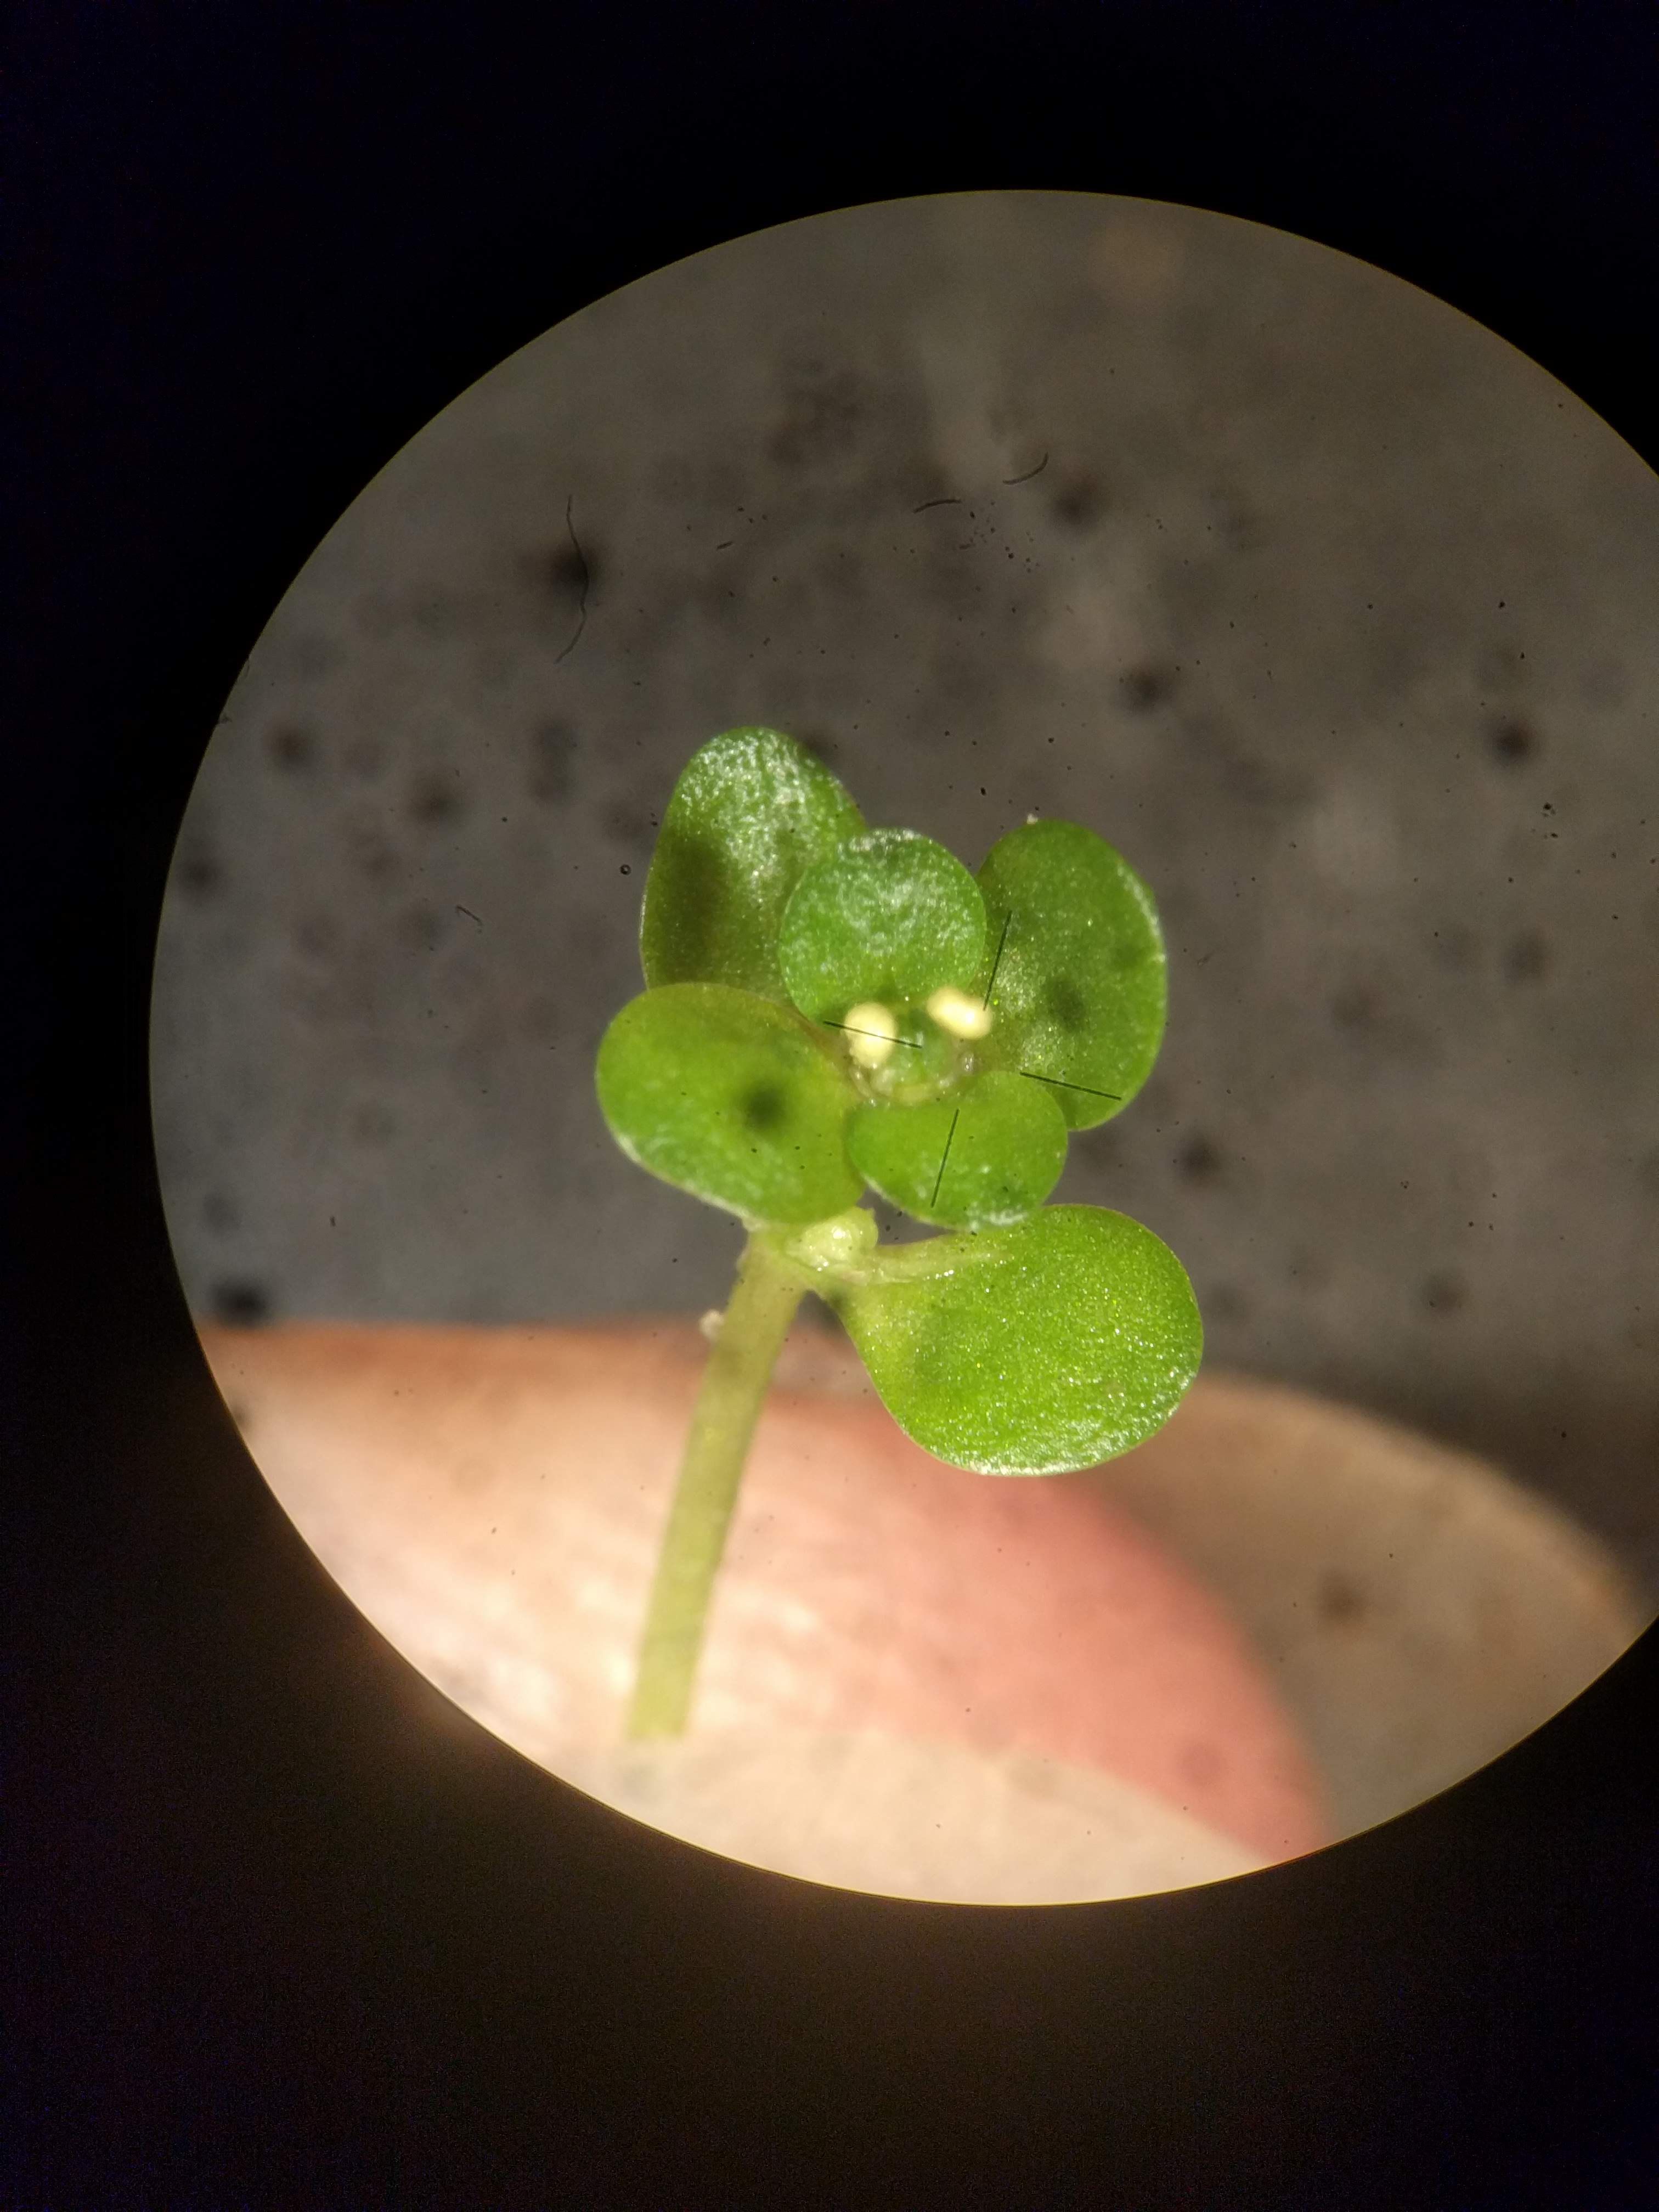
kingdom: Plantae
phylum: Tracheophyta
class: Magnoliopsida
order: Lamiales
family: Plantaginaceae
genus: Callitriche
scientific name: Callitriche palustris
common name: Spring water-starwort
